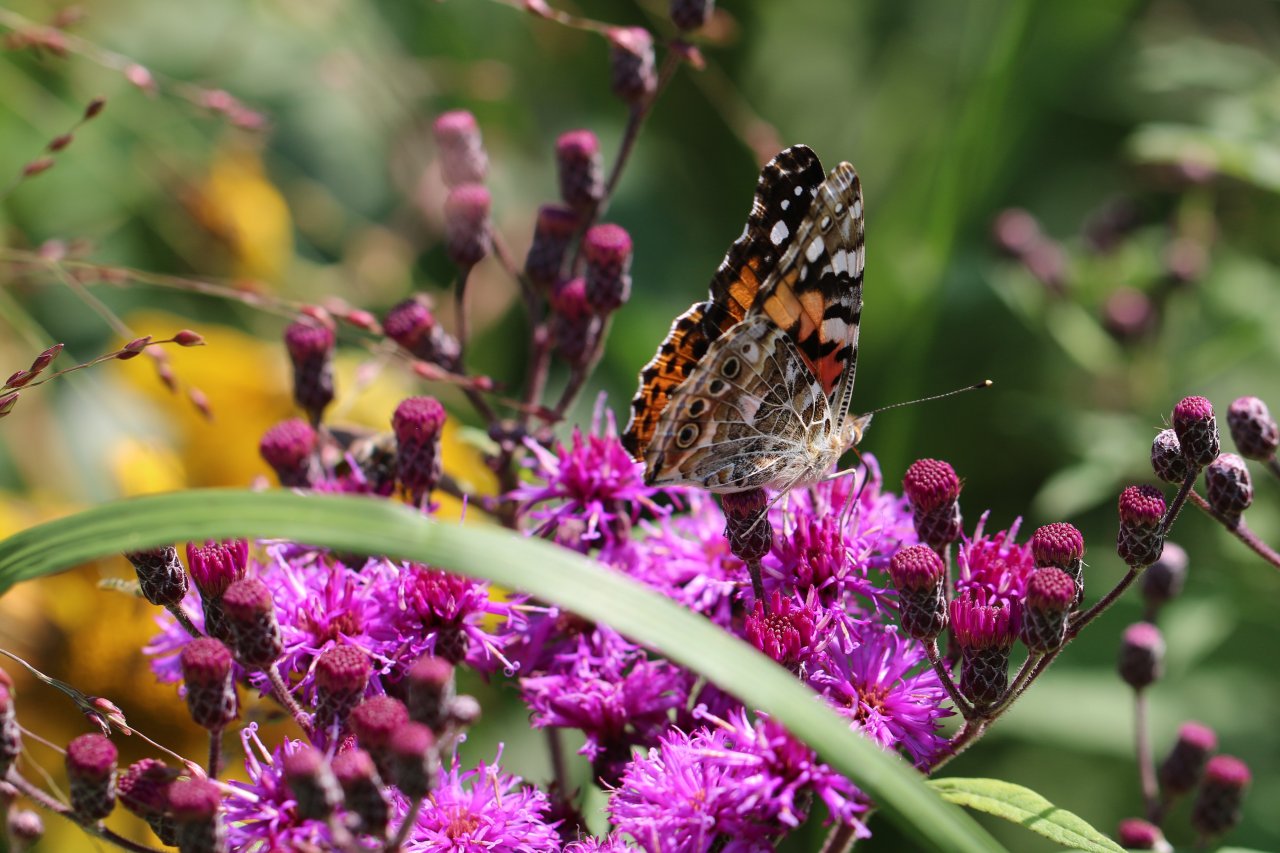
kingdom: Animalia
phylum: Arthropoda
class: Insecta
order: Lepidoptera
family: Nymphalidae
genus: Vanessa
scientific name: Vanessa cardui
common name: Painted Lady
